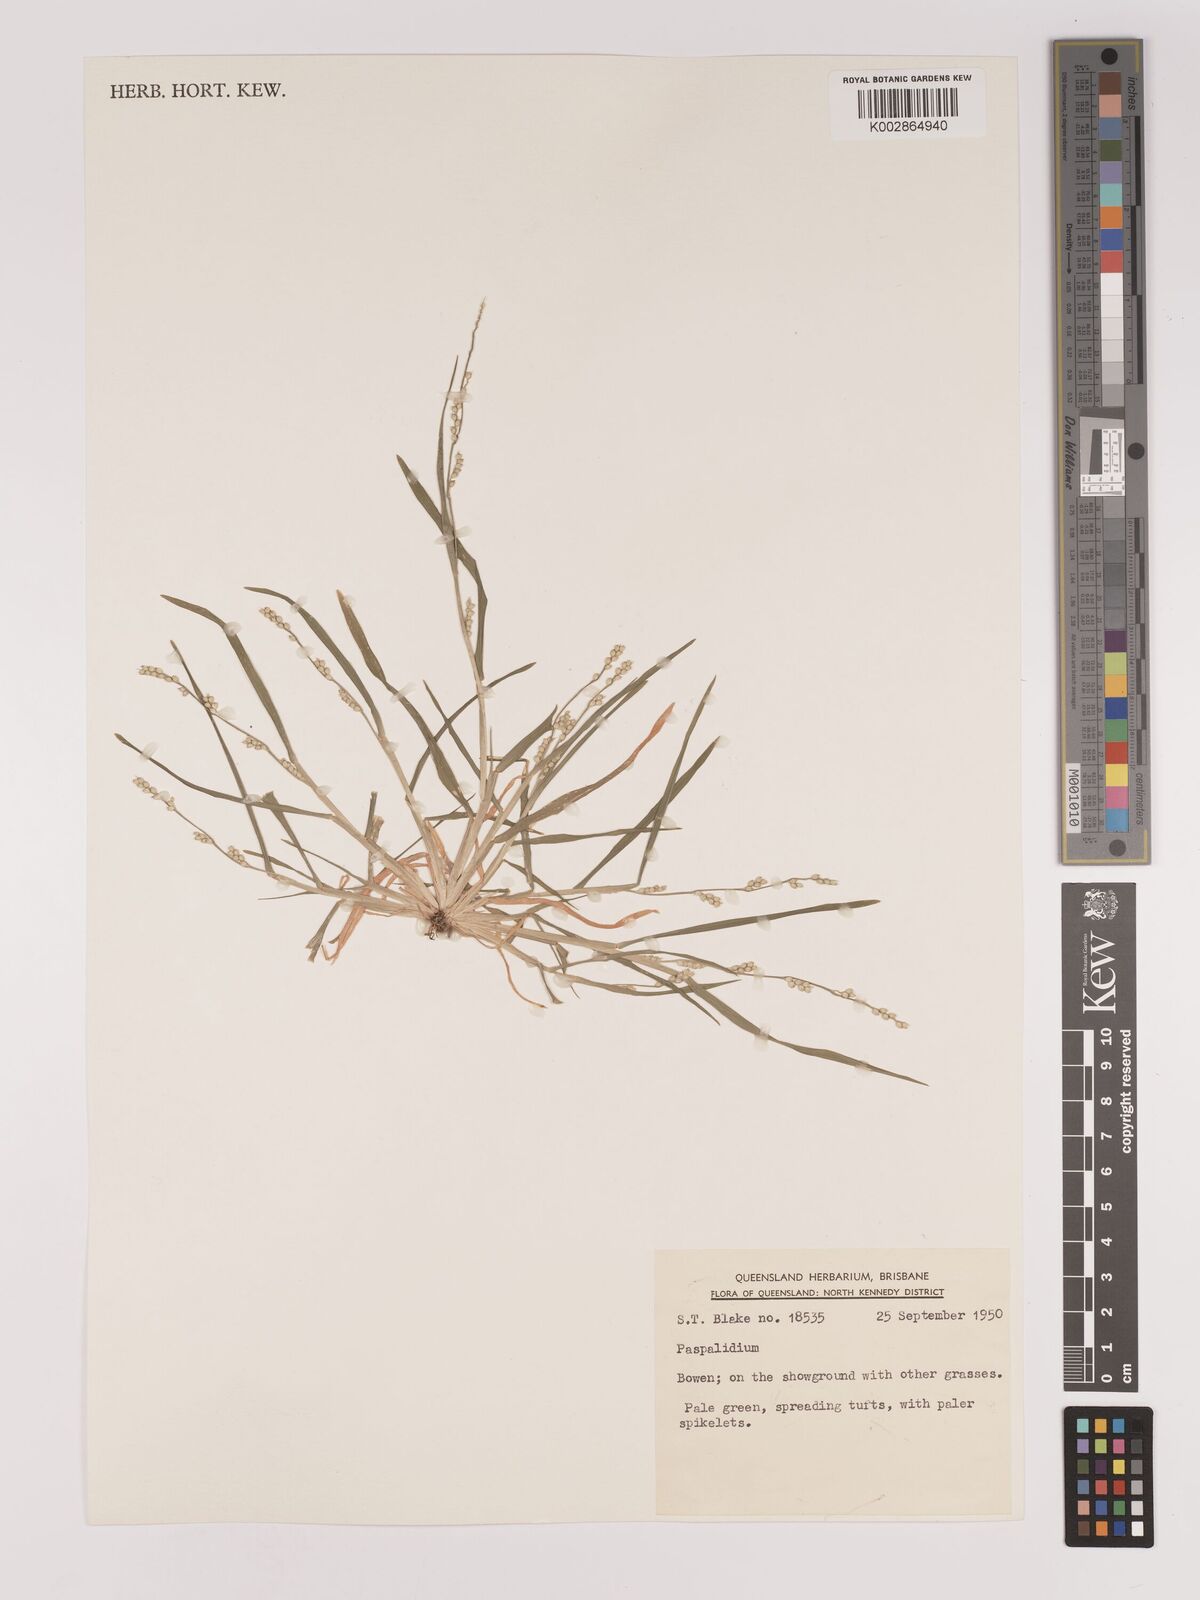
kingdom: Plantae
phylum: Tracheophyta
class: Liliopsida
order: Poales
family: Poaceae
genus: Setaria
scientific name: Setaria
